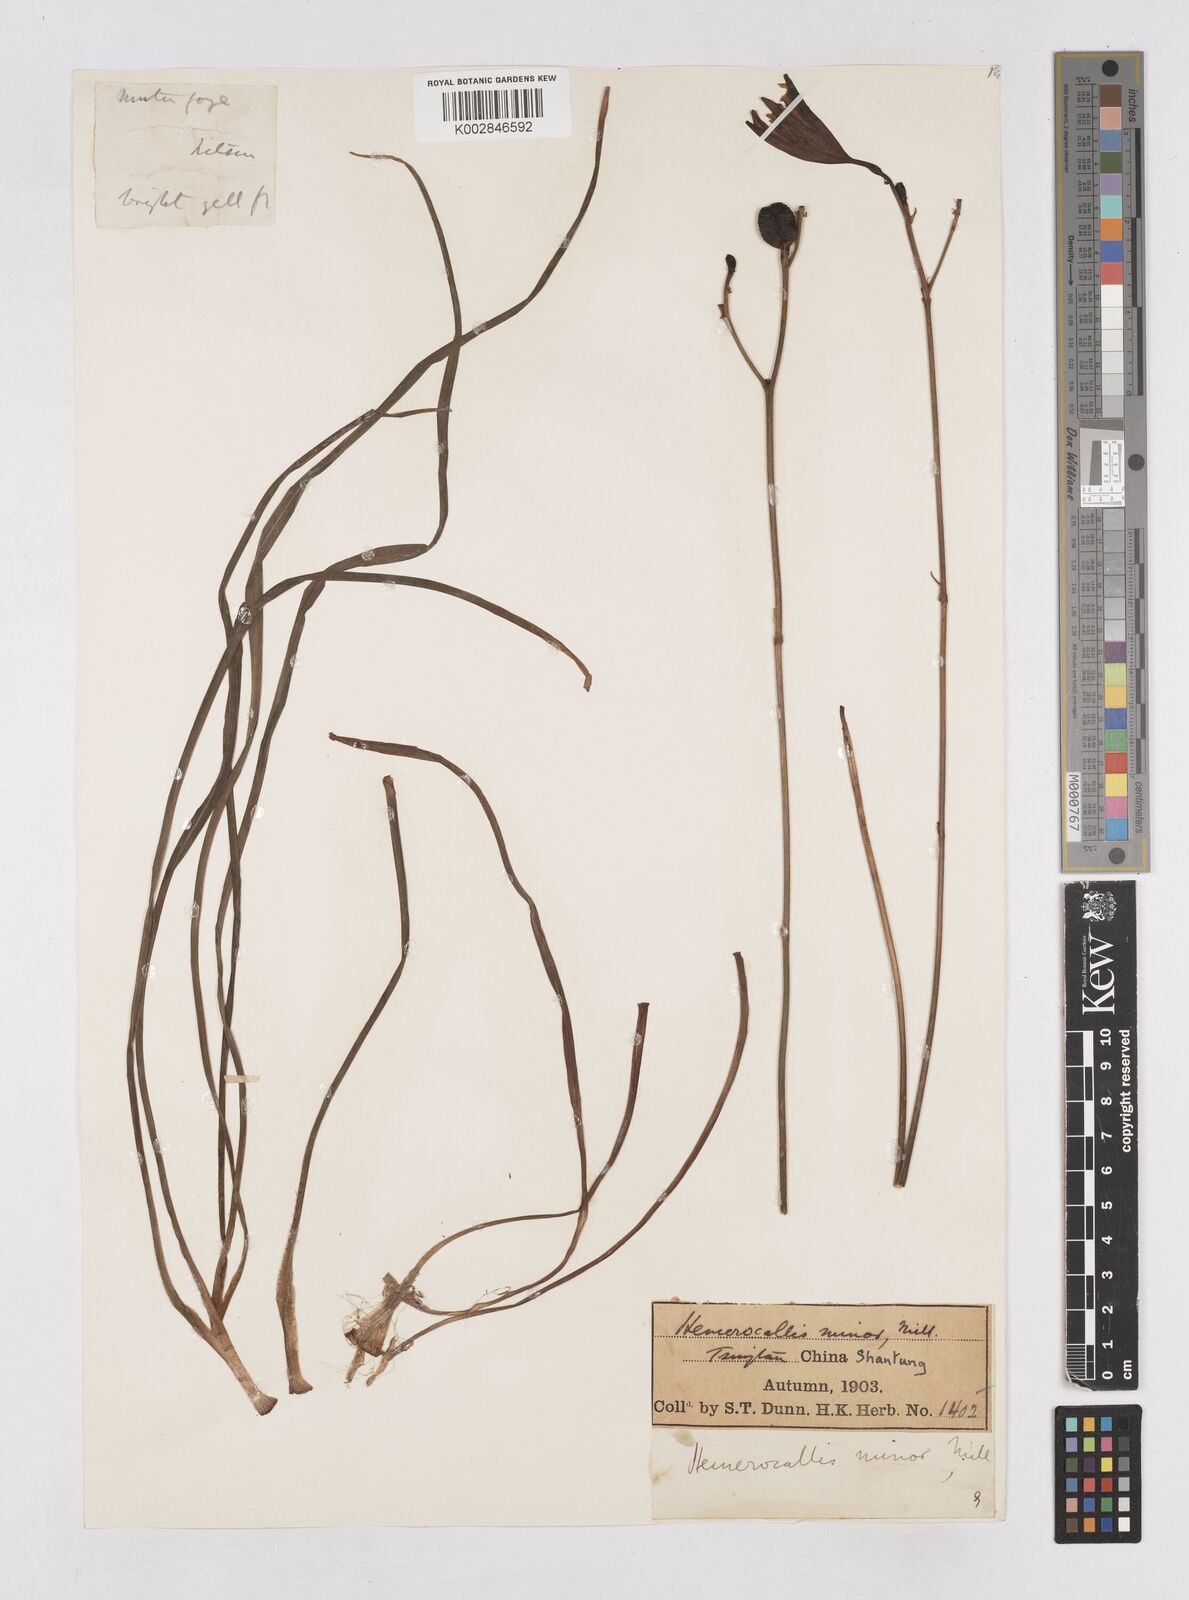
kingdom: Plantae
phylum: Tracheophyta
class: Liliopsida
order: Asparagales
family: Asphodelaceae
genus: Hemerocallis
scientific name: Hemerocallis minor
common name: Small daylily
